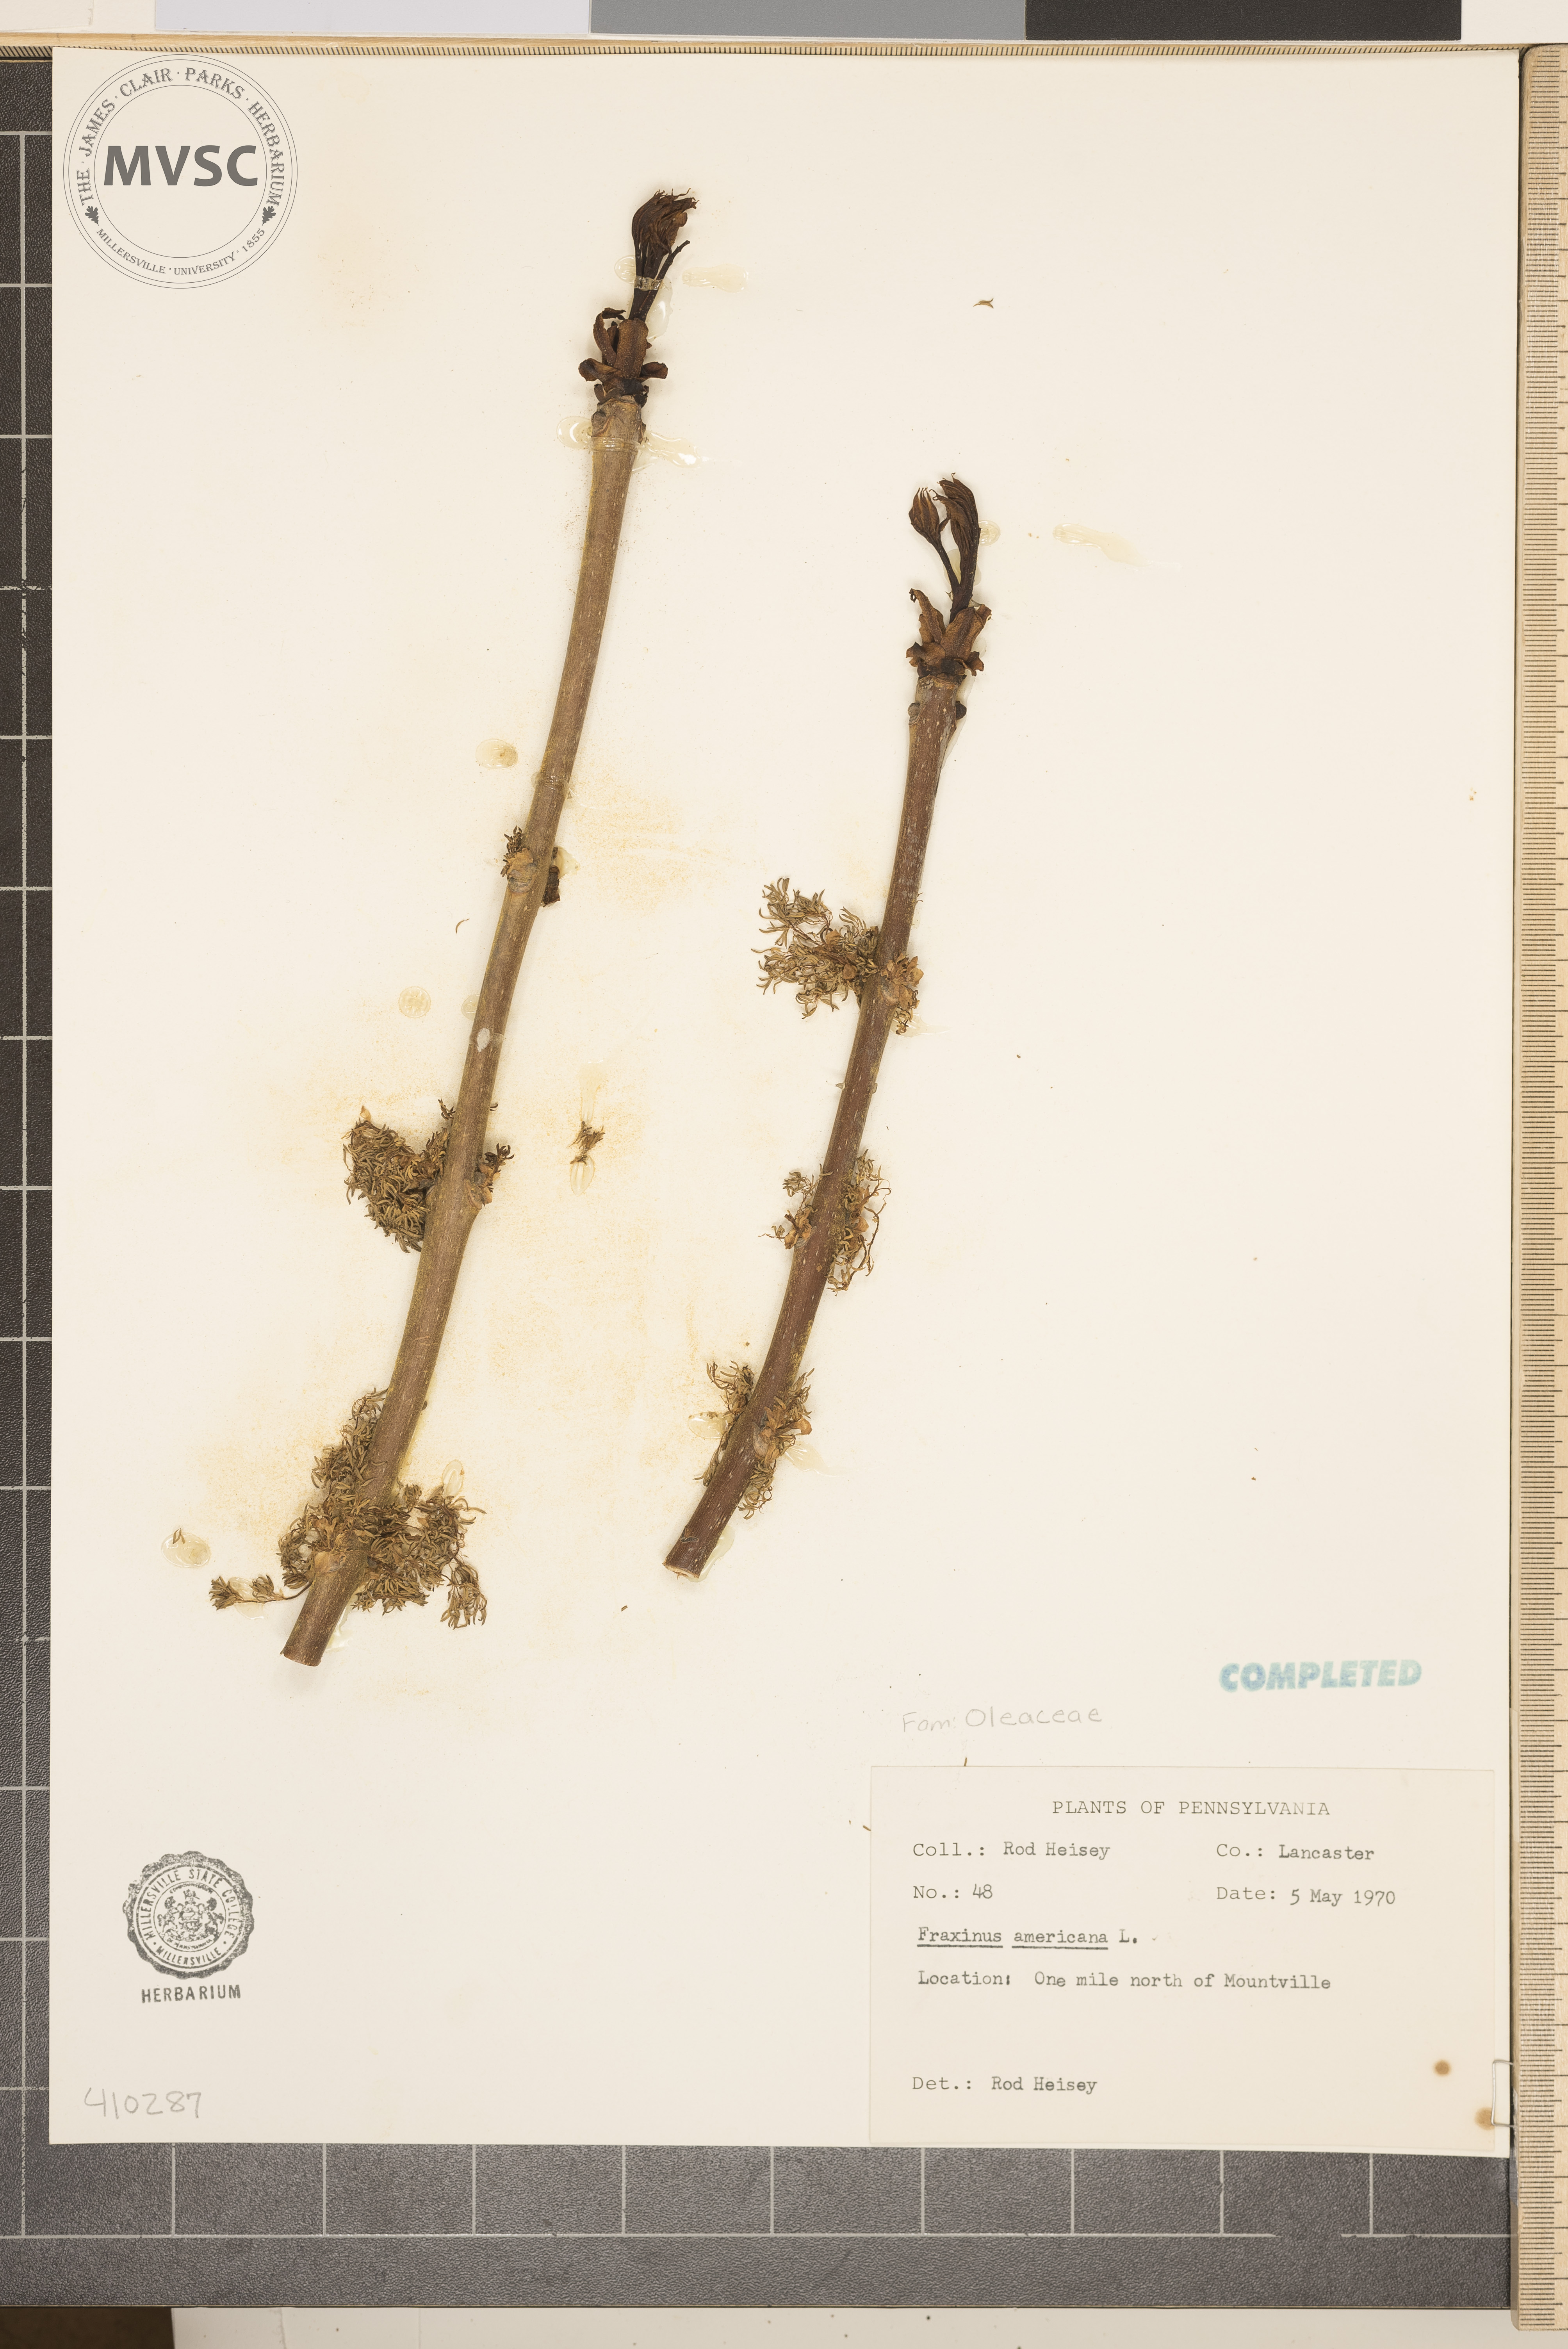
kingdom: Plantae
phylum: Tracheophyta
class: Magnoliopsida
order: Lamiales
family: Oleaceae
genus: Fraxinus
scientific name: Fraxinus americana
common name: White ash
